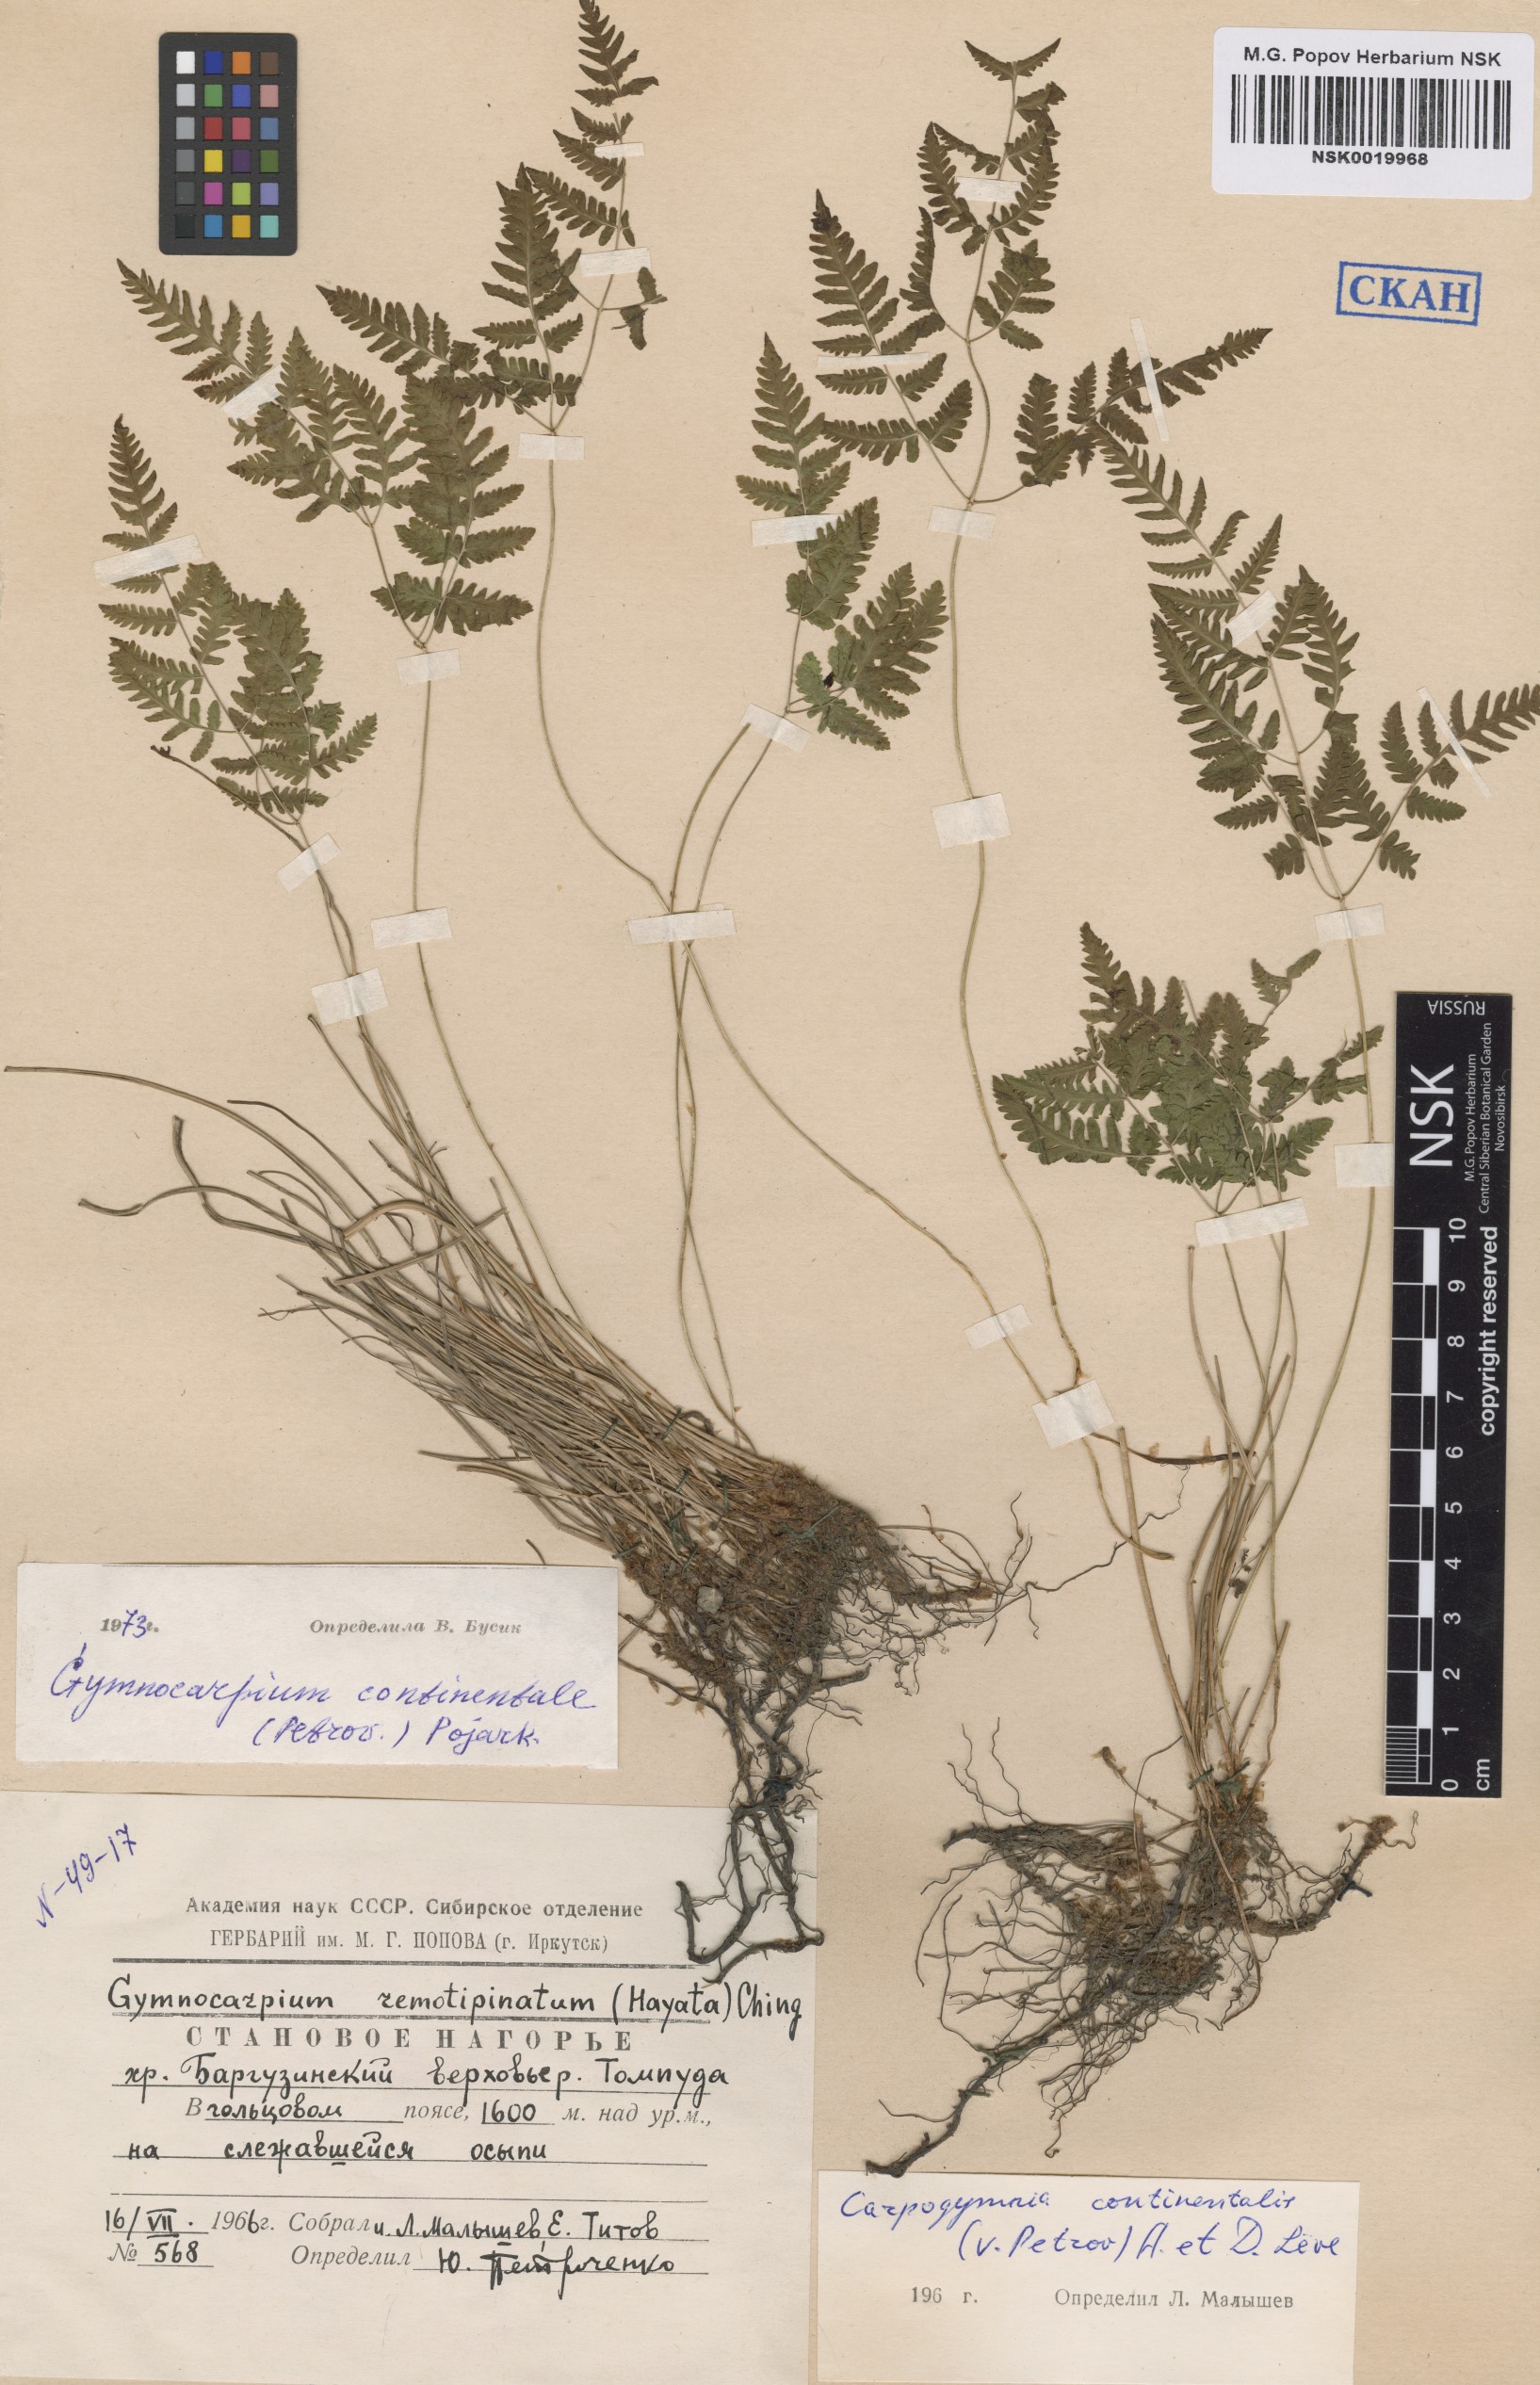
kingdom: Plantae
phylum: Tracheophyta
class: Polypodiopsida
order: Polypodiales
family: Cystopteridaceae
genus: Gymnocarpium
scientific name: Gymnocarpium continentale
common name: Asian oak fern
